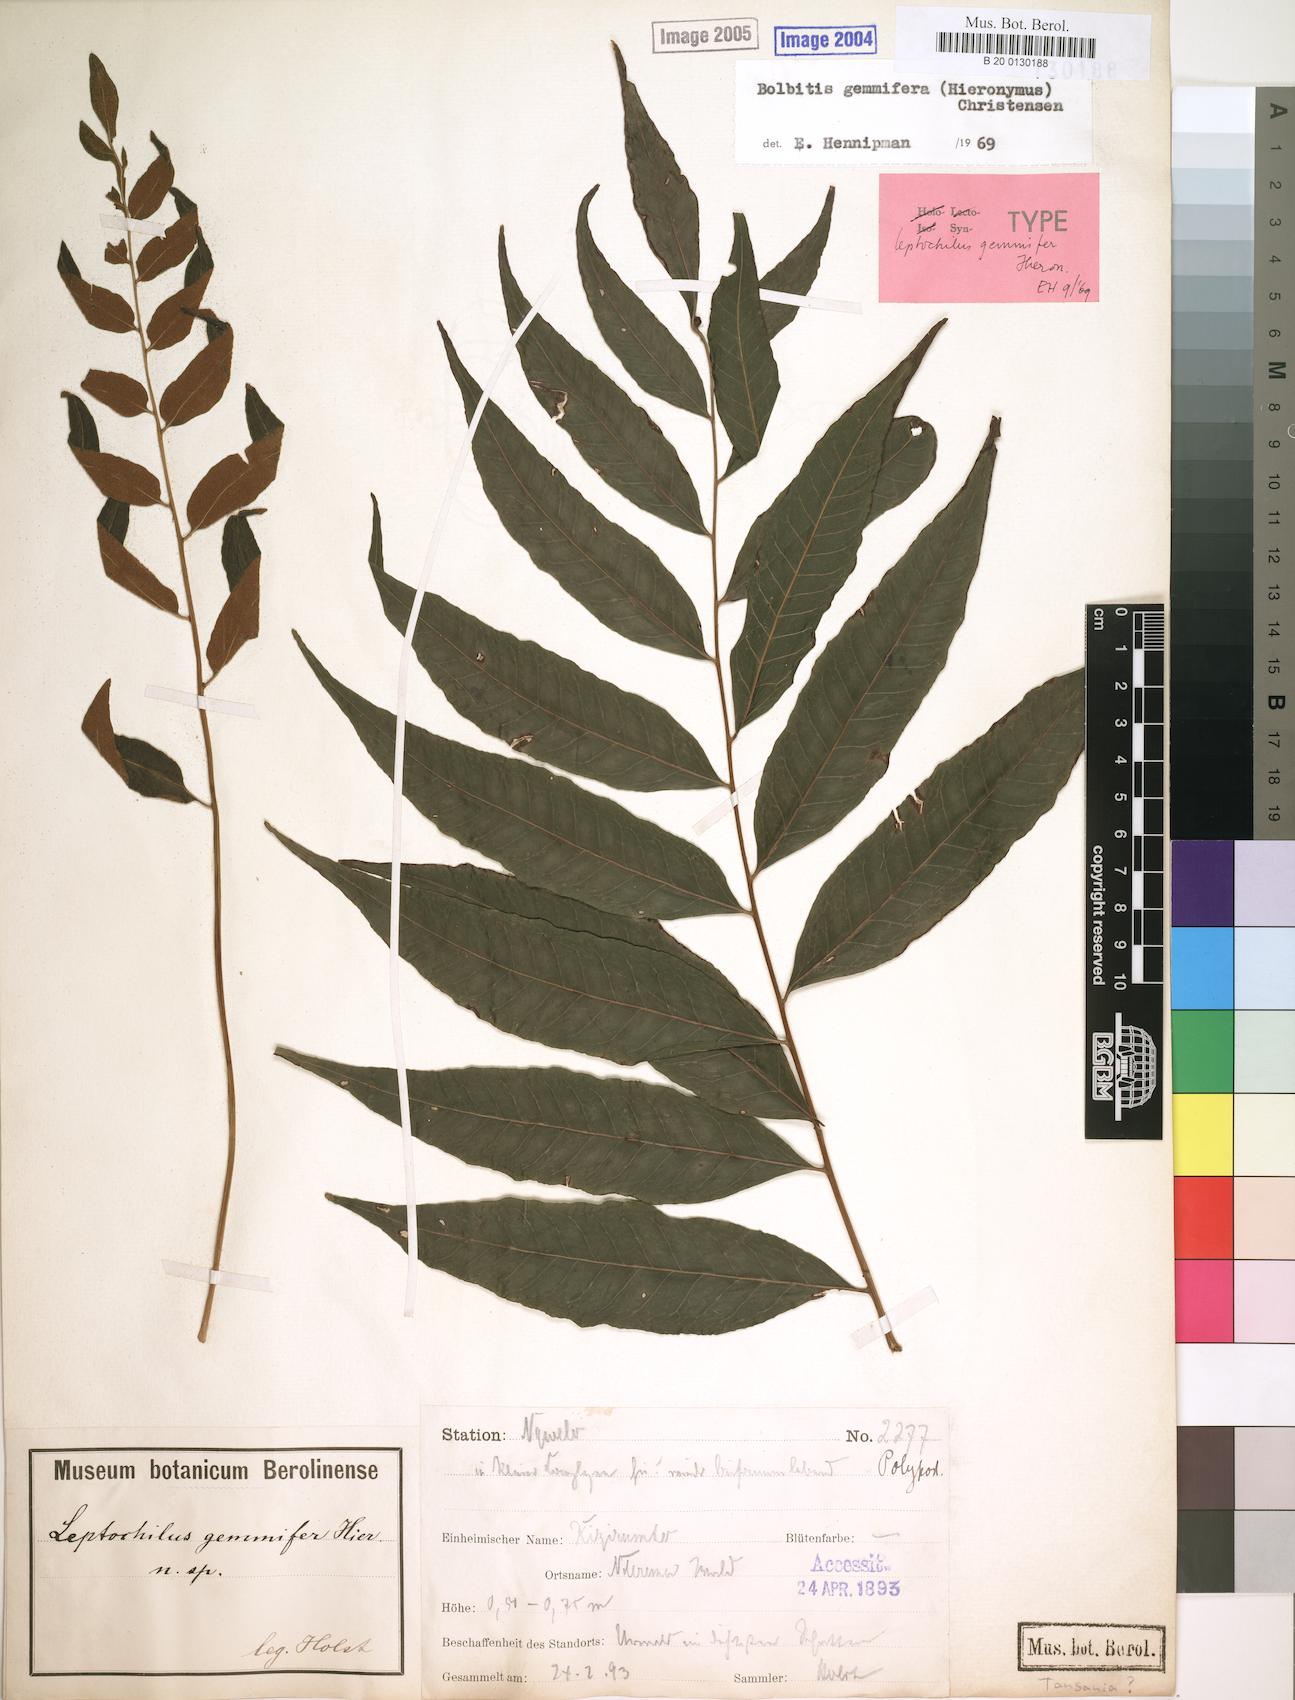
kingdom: Plantae
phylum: Tracheophyta
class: Polypodiopsida
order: Polypodiales
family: Dryopteridaceae
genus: Bolbitis
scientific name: Bolbitis gemmifer
